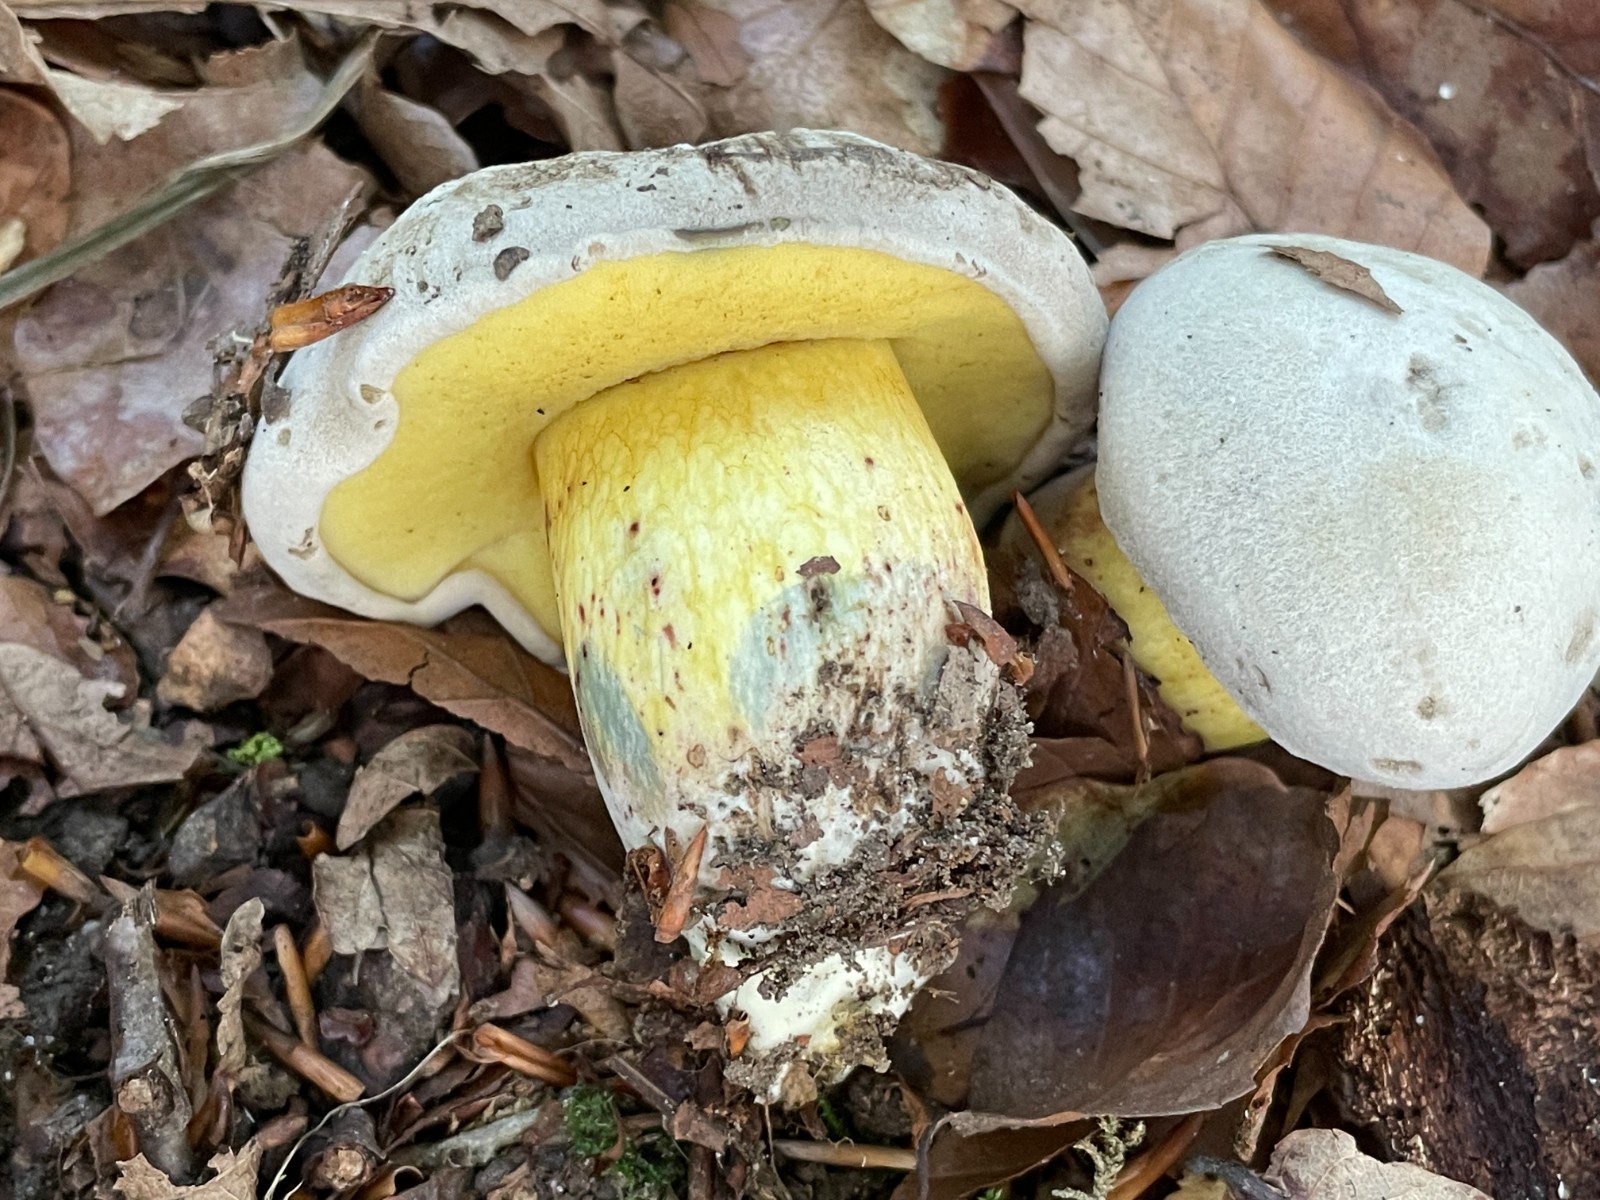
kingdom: Fungi
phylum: Basidiomycota
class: Agaricomycetes
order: Boletales
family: Boletaceae
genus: Caloboletus
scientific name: Caloboletus radicans
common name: rod-rørhat
